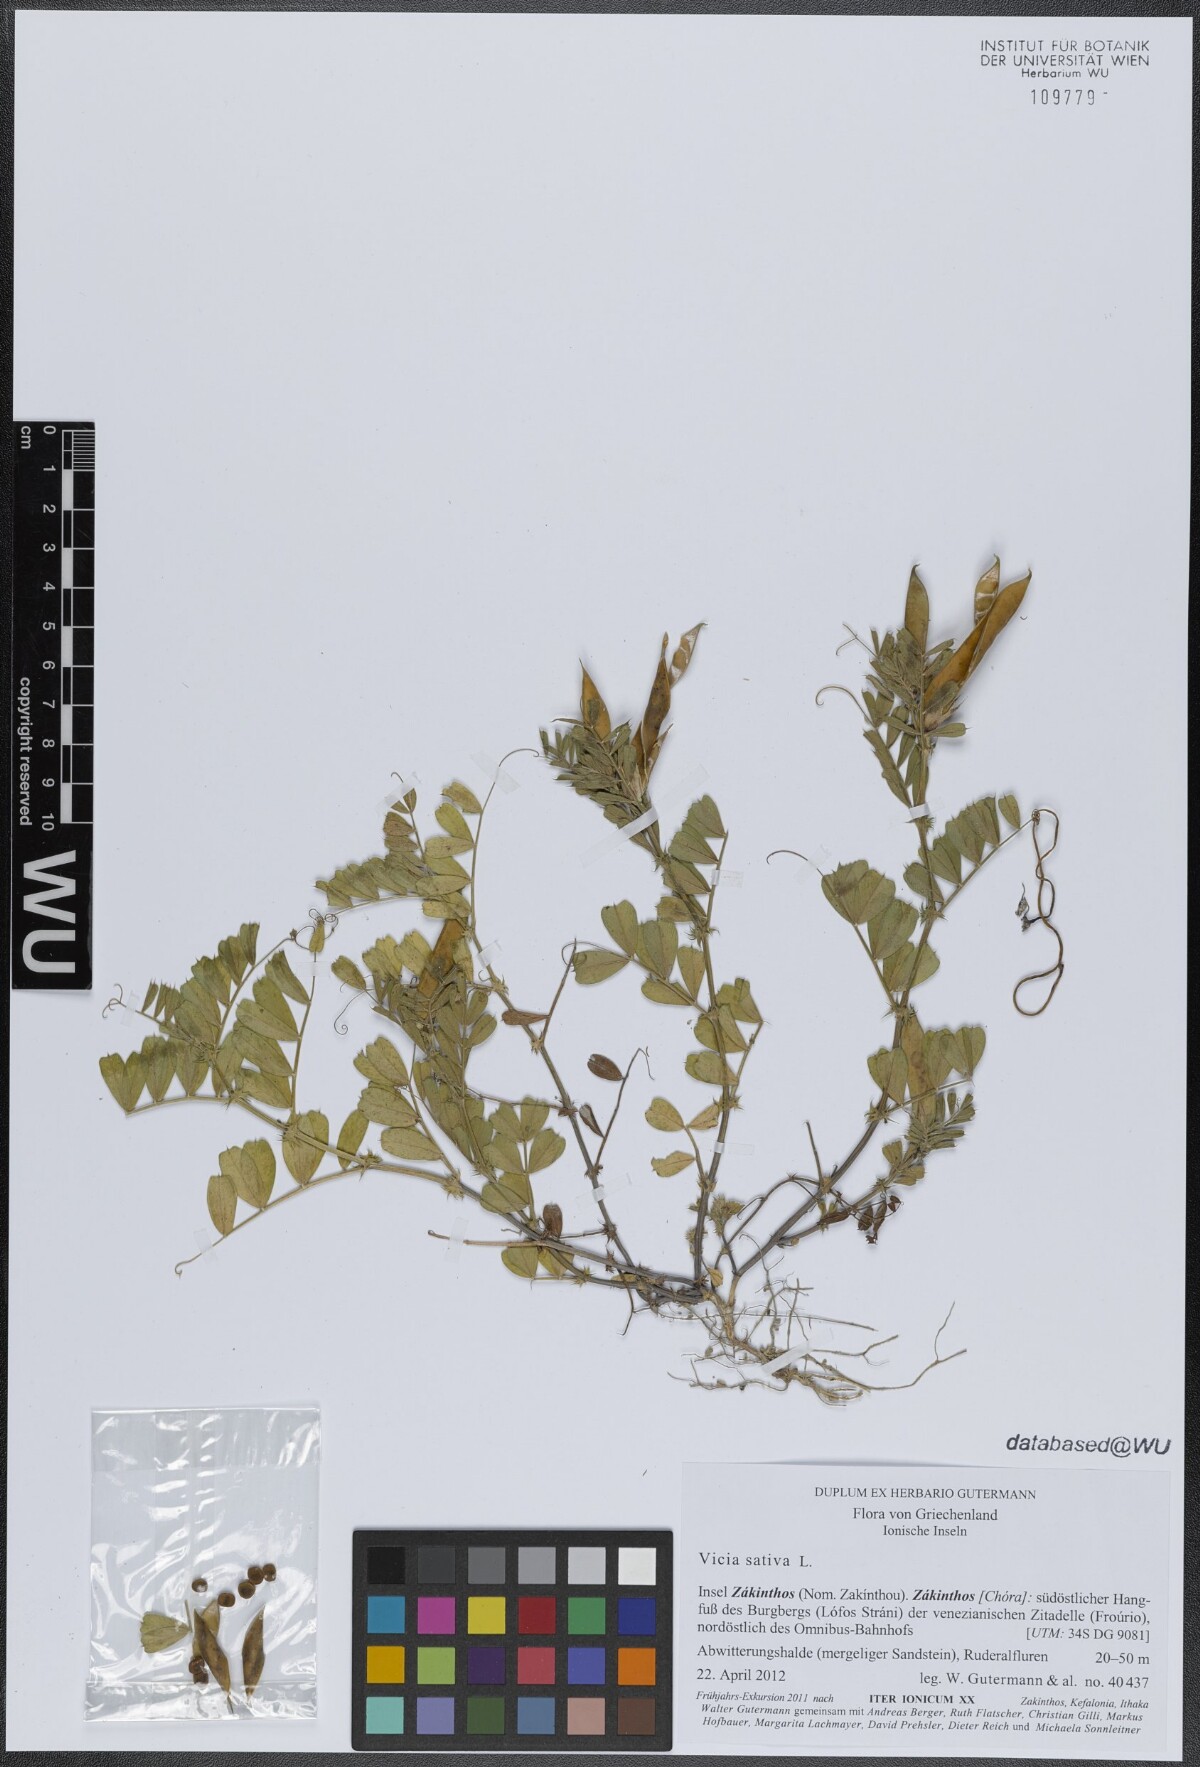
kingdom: Plantae
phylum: Tracheophyta
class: Magnoliopsida
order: Fabales
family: Fabaceae
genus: Vicia
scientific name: Vicia sativa
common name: Garden vetch
